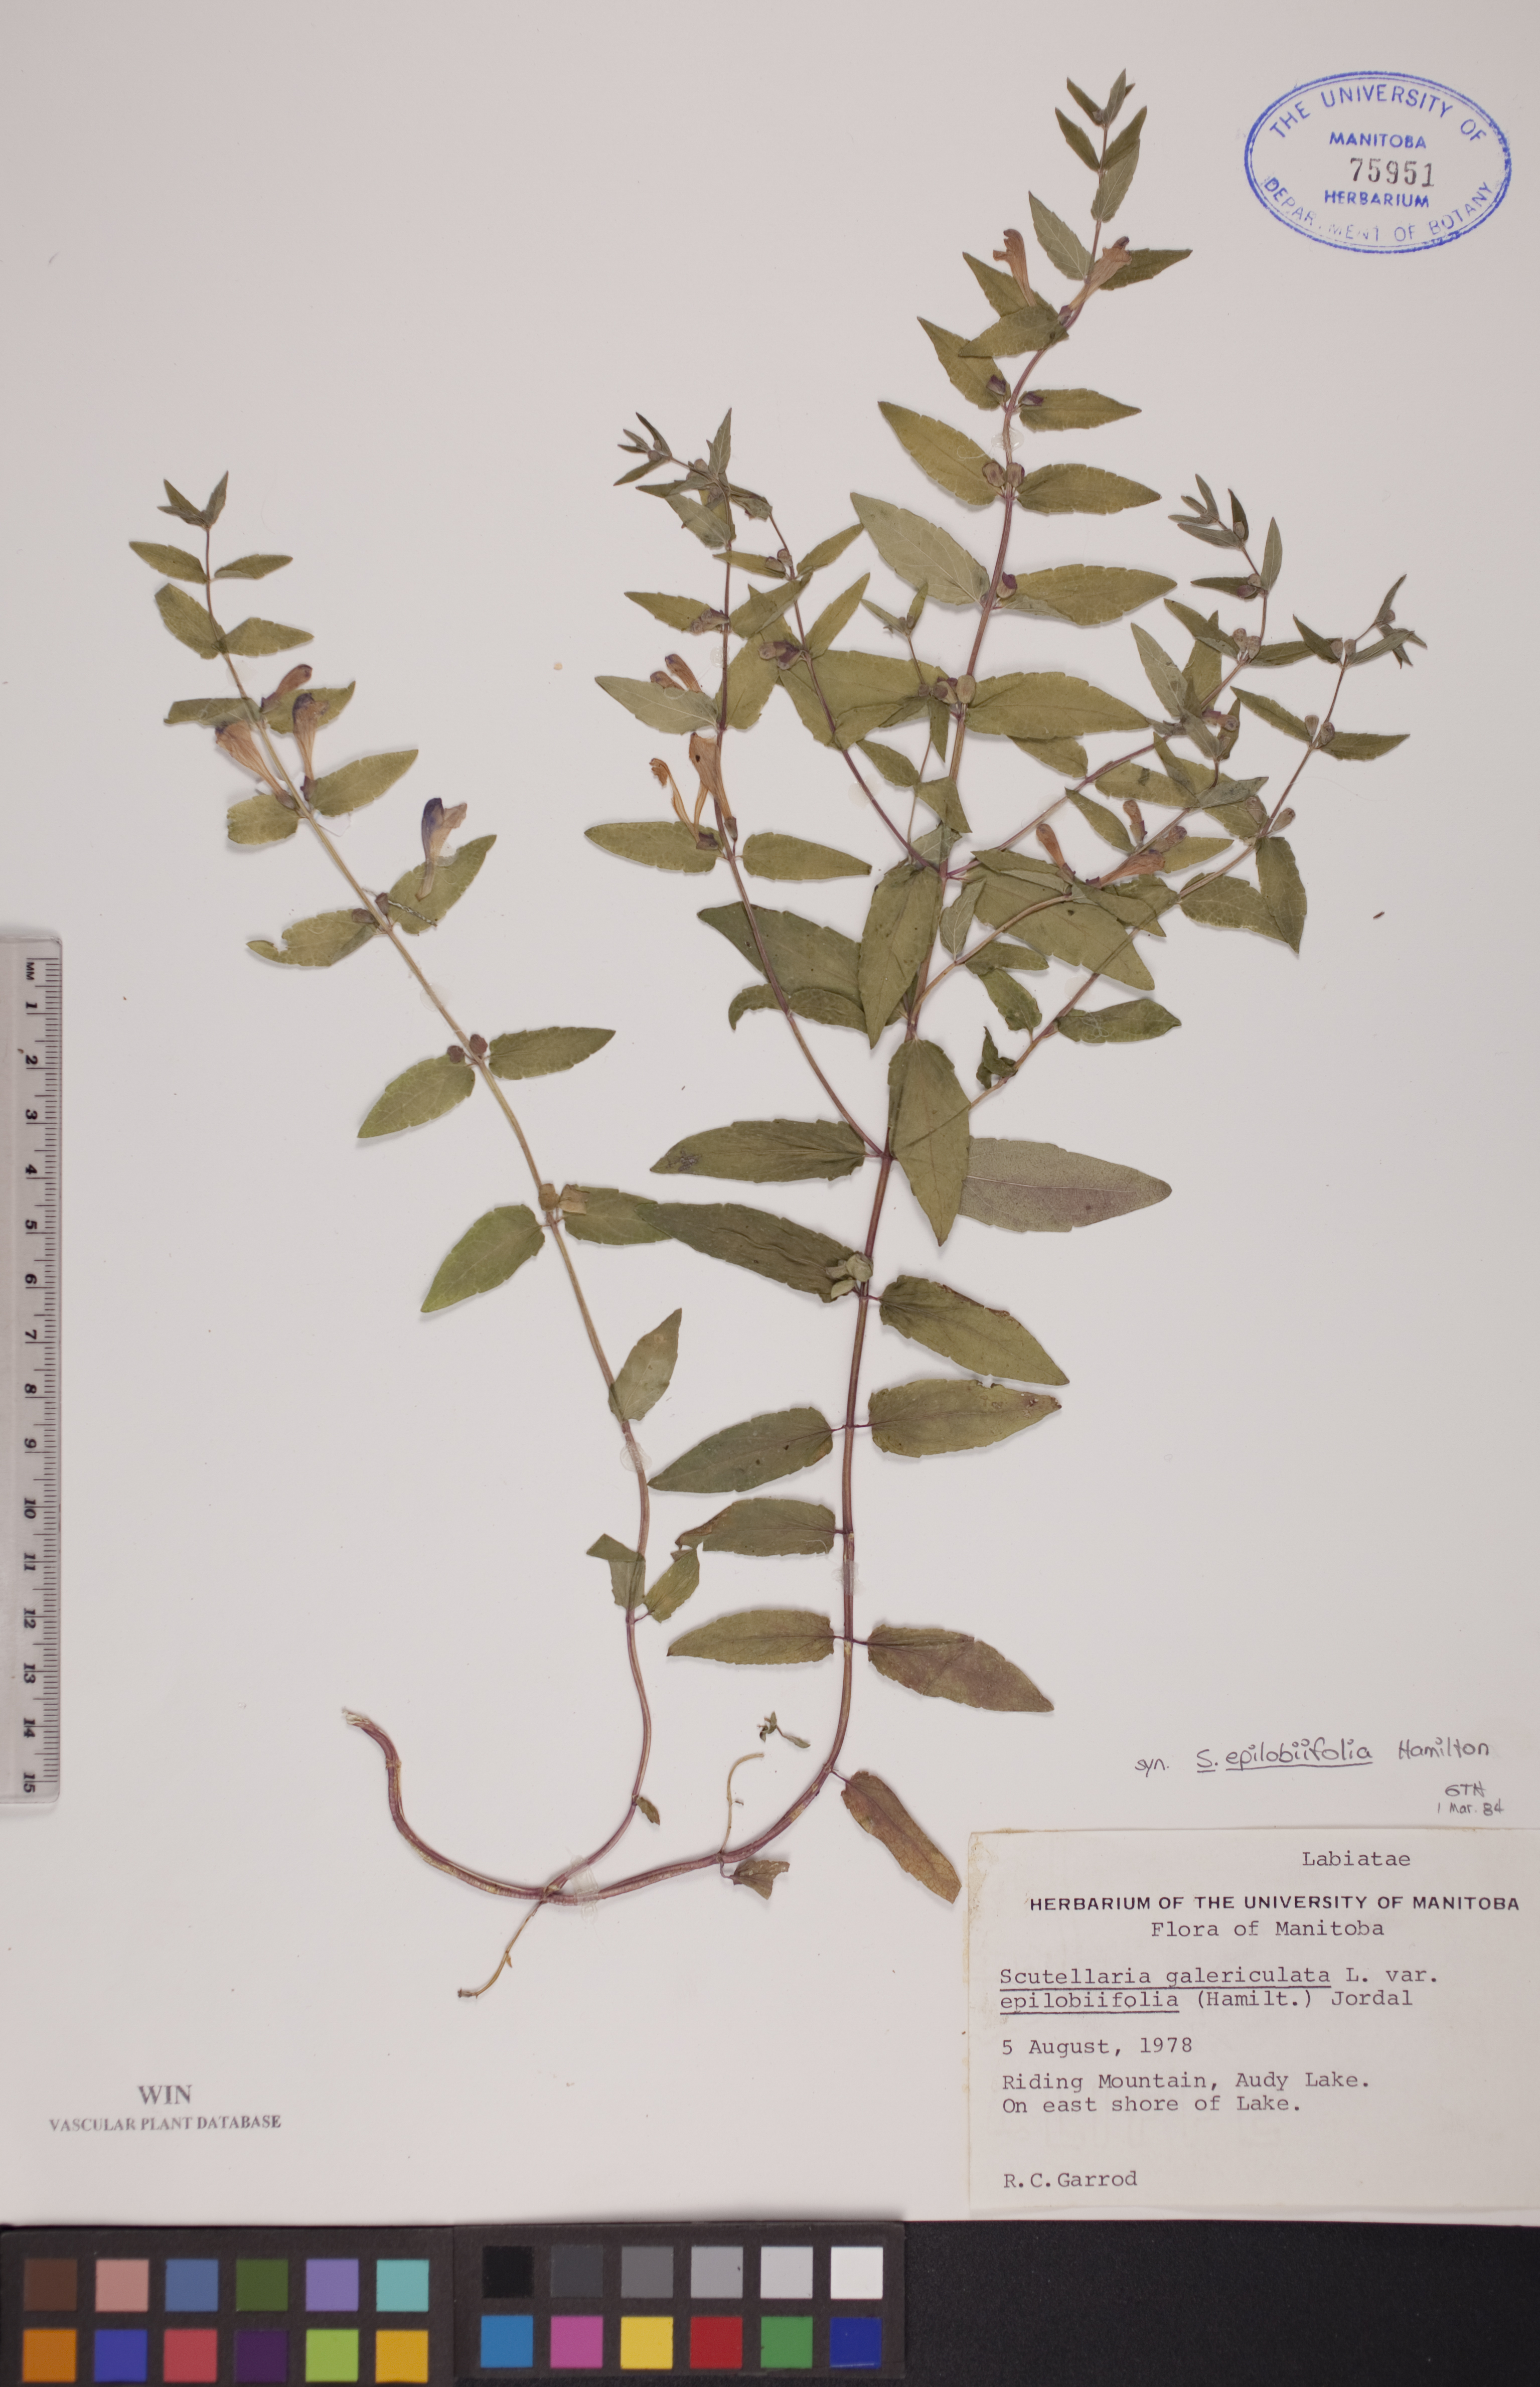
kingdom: Plantae
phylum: Tracheophyta
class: Magnoliopsida
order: Lamiales
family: Lamiaceae
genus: Scutellaria
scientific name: Scutellaria galericulata
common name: Skullcap
